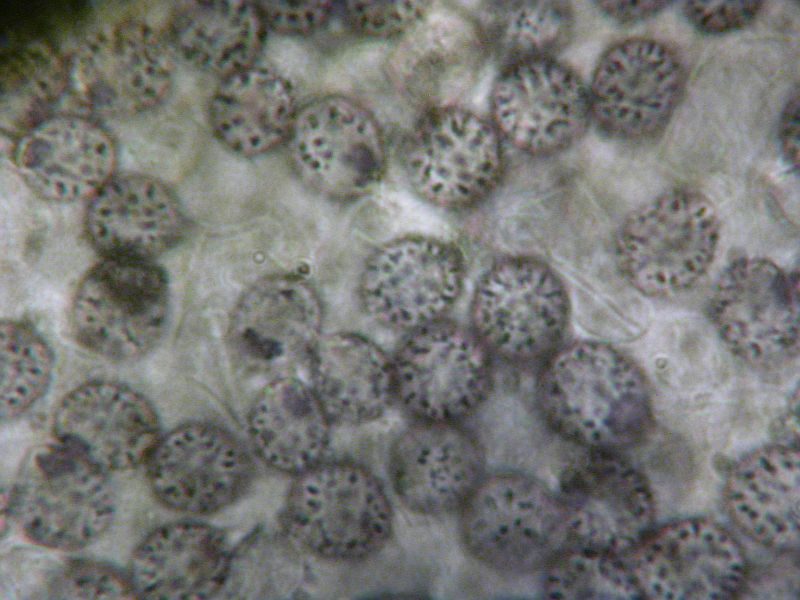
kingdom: Fungi
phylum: Basidiomycota
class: Agaricomycetes
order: Russulales
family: Russulaceae
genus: Russula
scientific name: Russula nitida
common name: året skørhat
